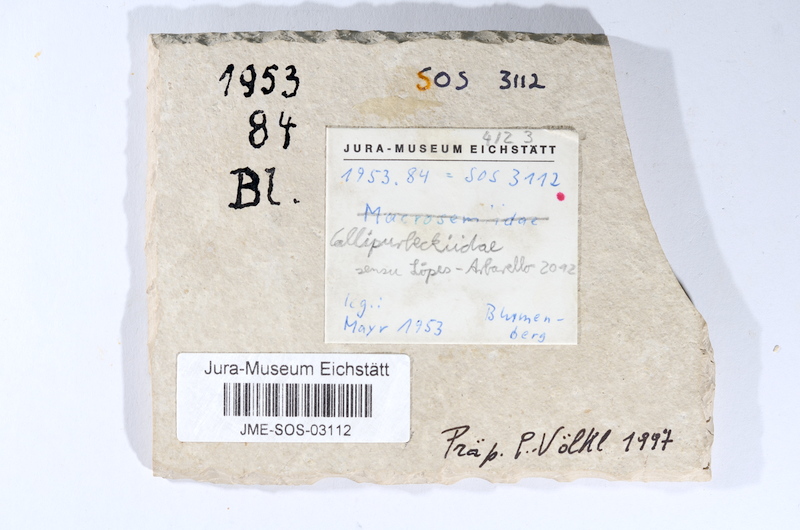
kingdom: Animalia
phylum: Chordata
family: Callipurbeckiidae
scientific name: Callipurbeckiidae
